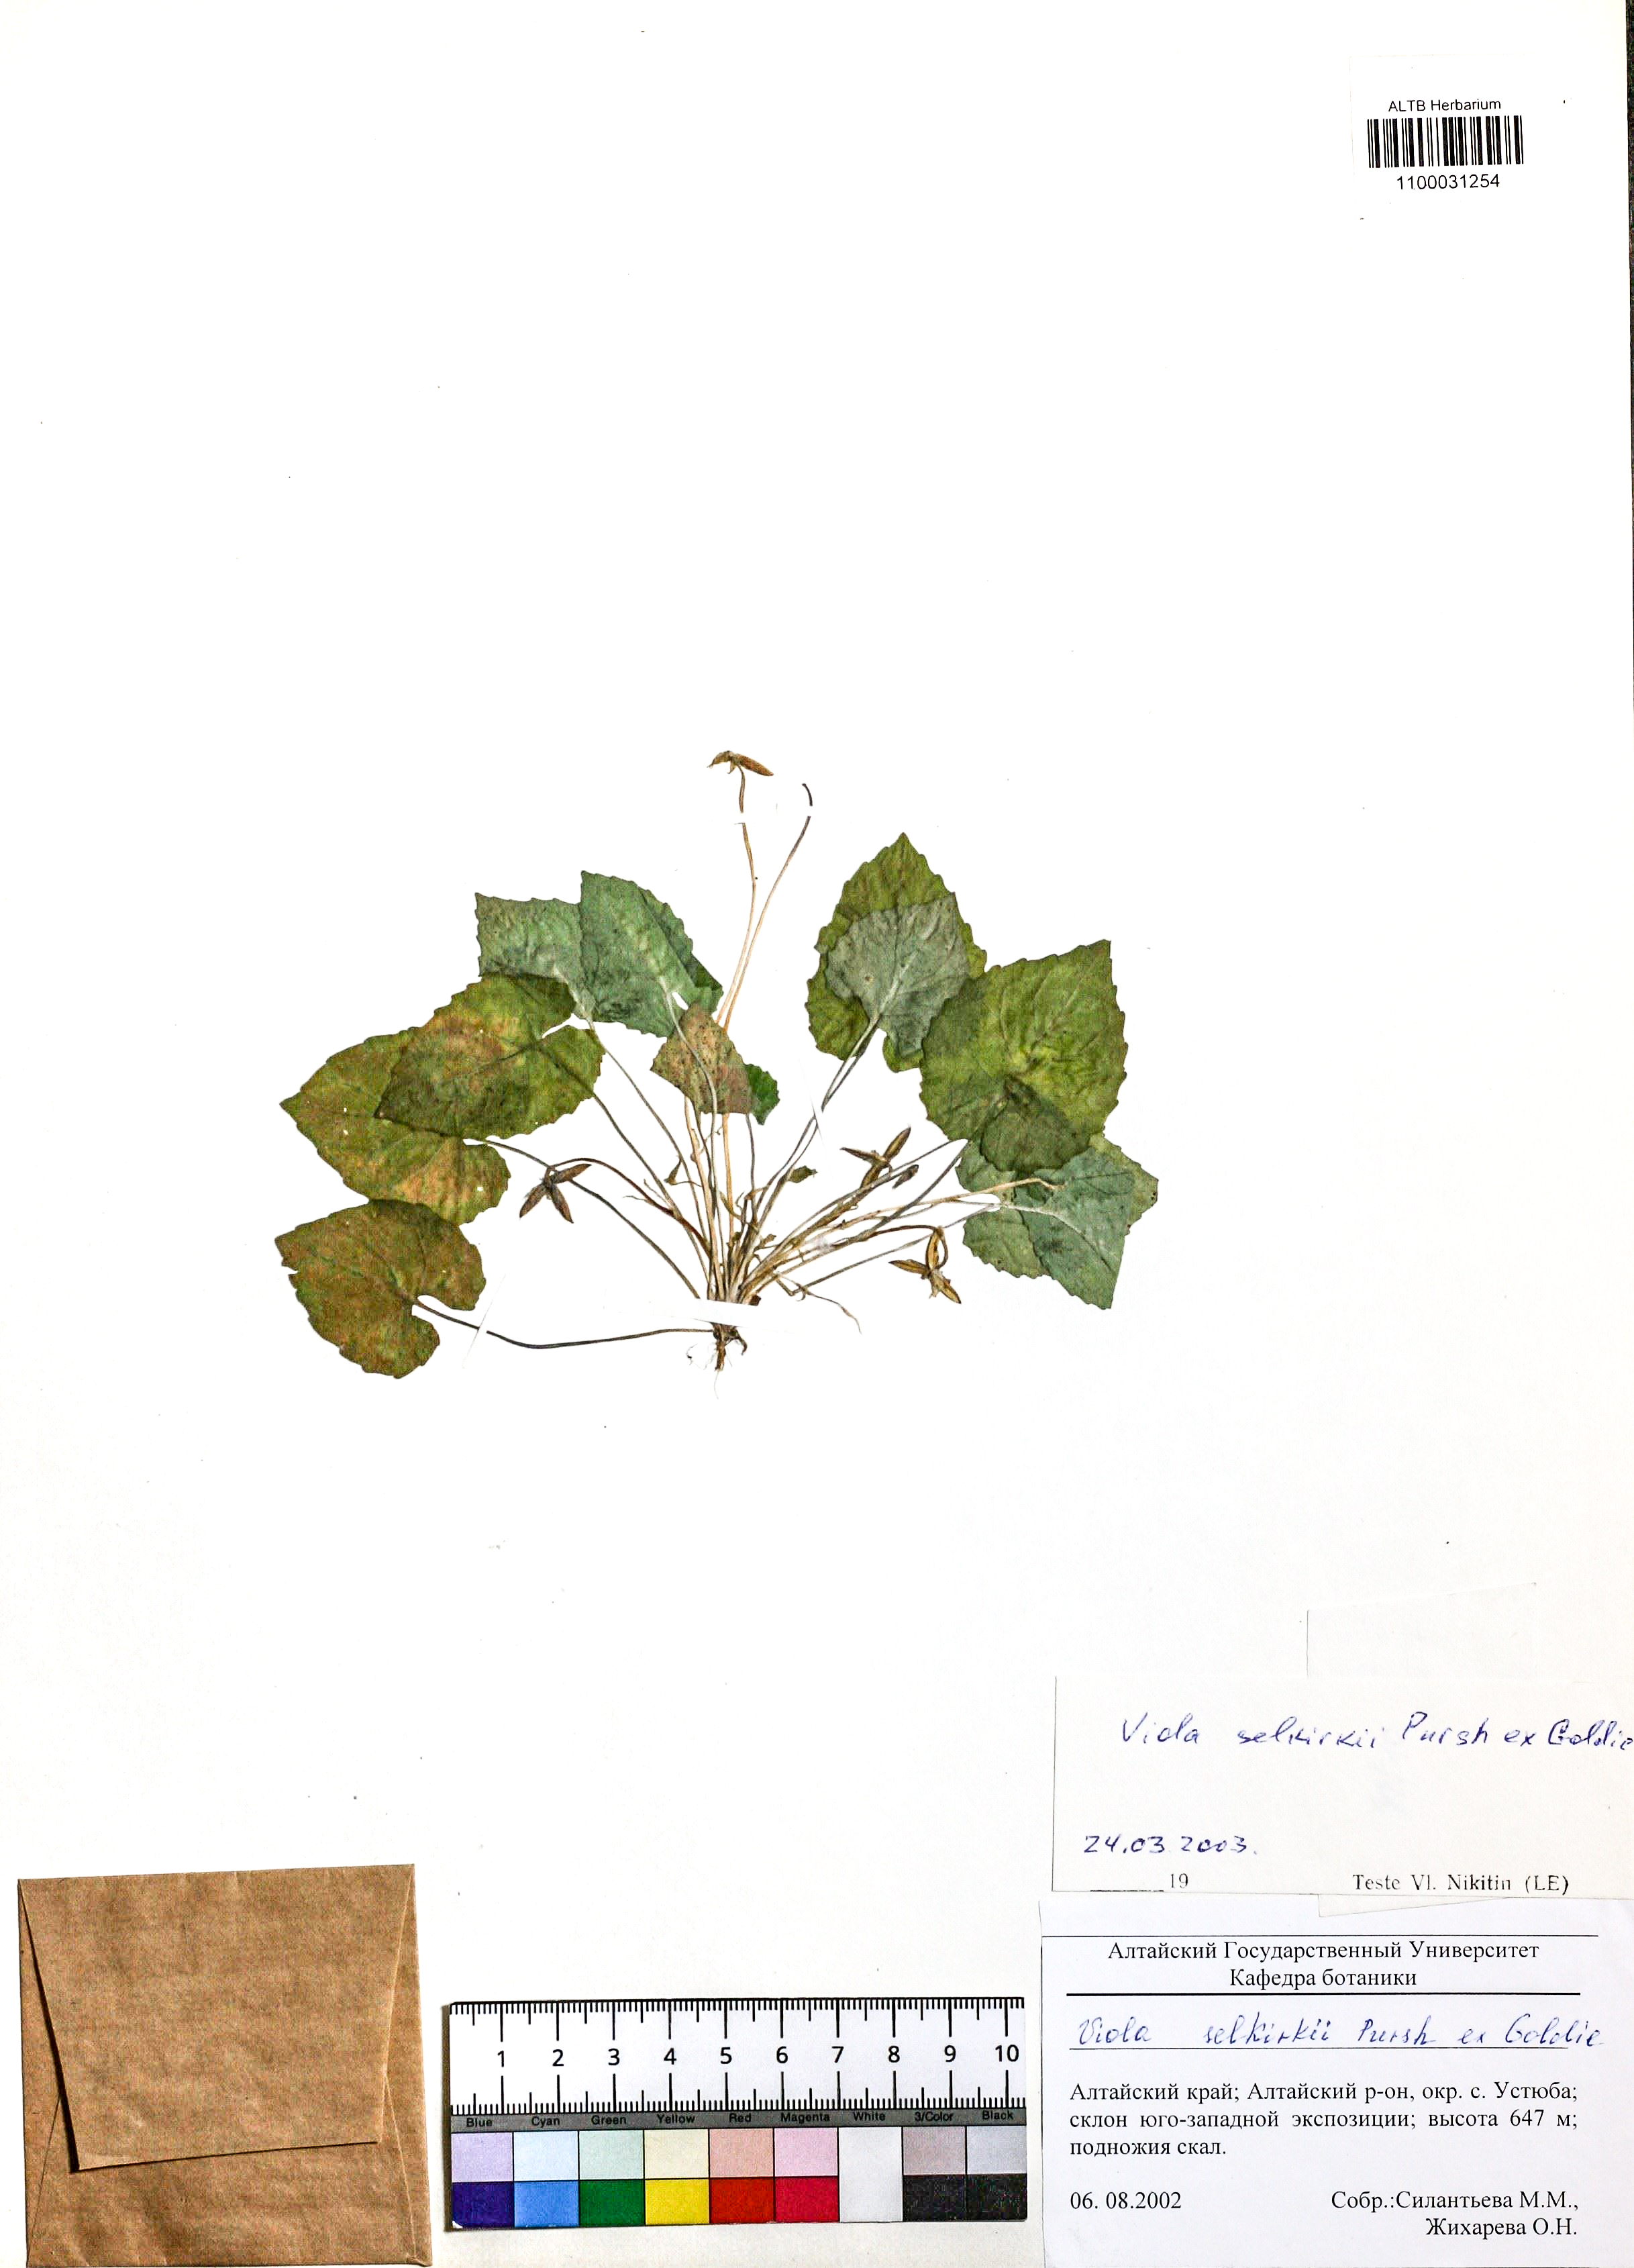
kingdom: Plantae
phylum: Tracheophyta
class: Magnoliopsida
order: Malpighiales
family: Violaceae
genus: Viola
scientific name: Viola selkirkii
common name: Selkirk's violet
